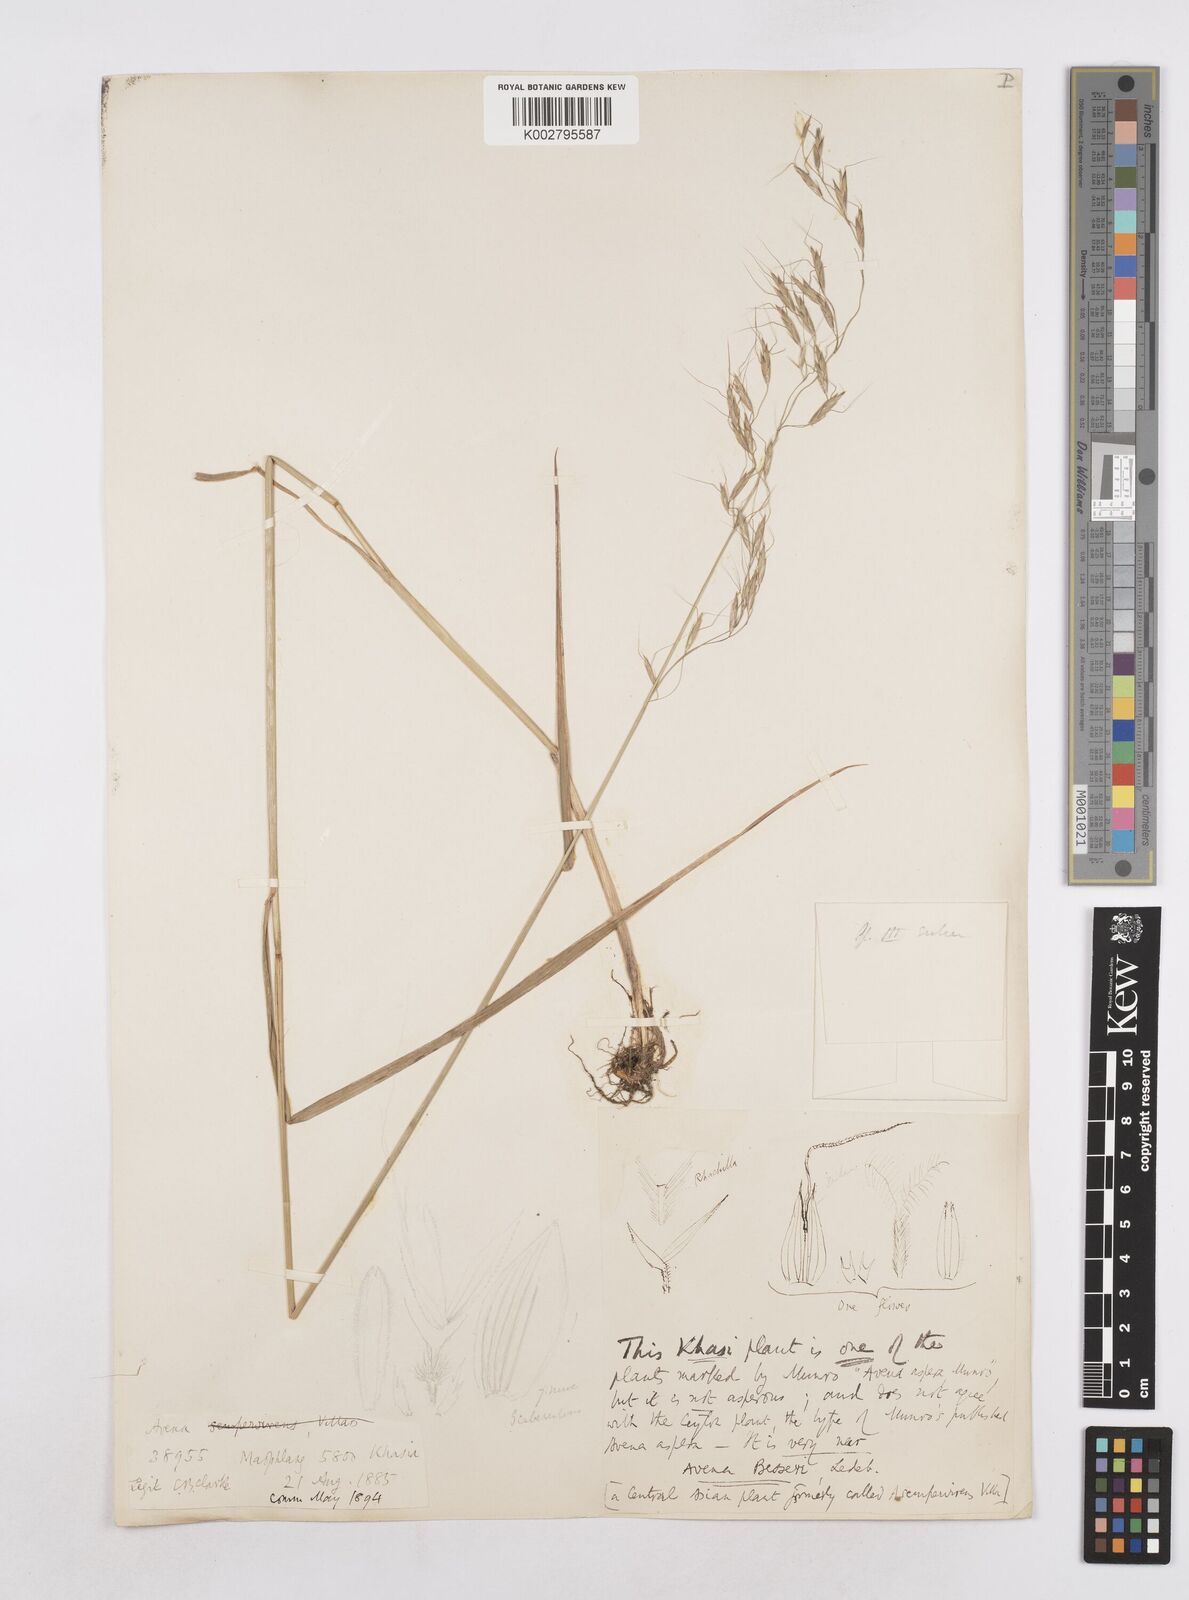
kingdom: Plantae
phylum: Tracheophyta
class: Liliopsida
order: Poales
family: Poaceae
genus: Trisetopsis
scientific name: Trisetopsis junghuhnii
